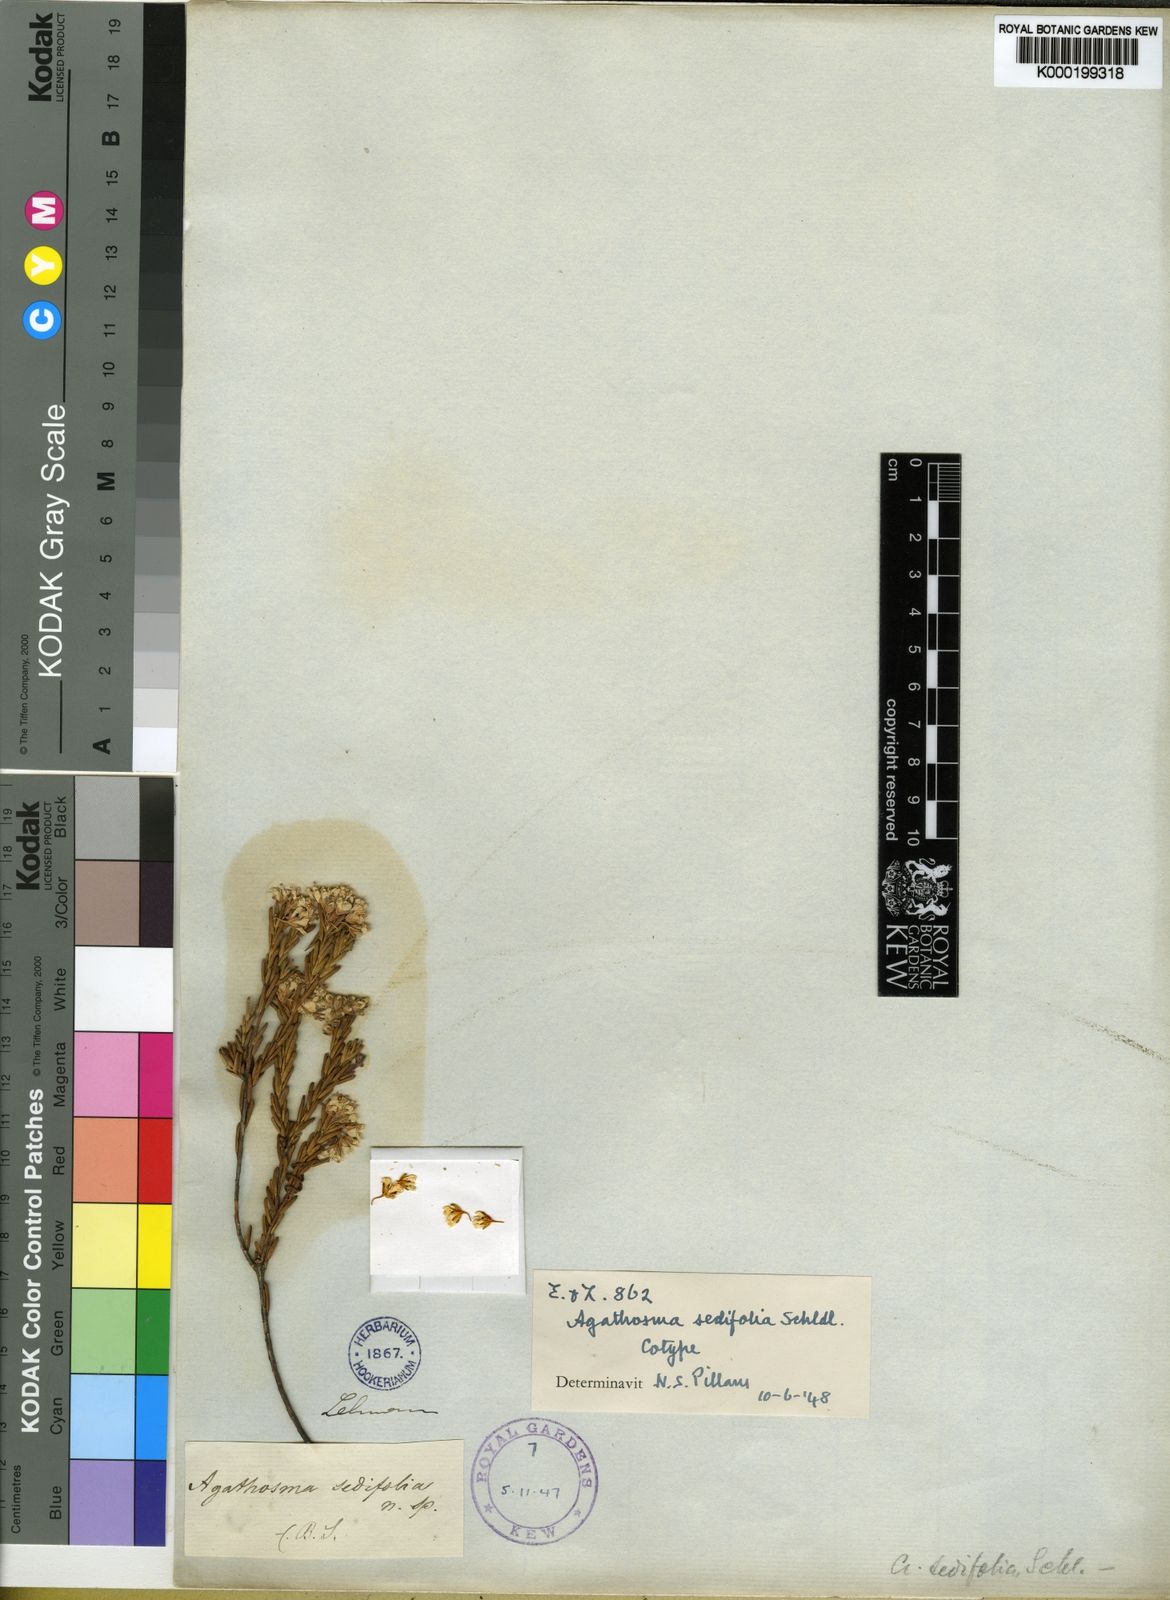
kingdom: Plantae
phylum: Tracheophyta
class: Magnoliopsida
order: Sapindales
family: Rutaceae
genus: Agathosma
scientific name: Agathosma sedifolia
